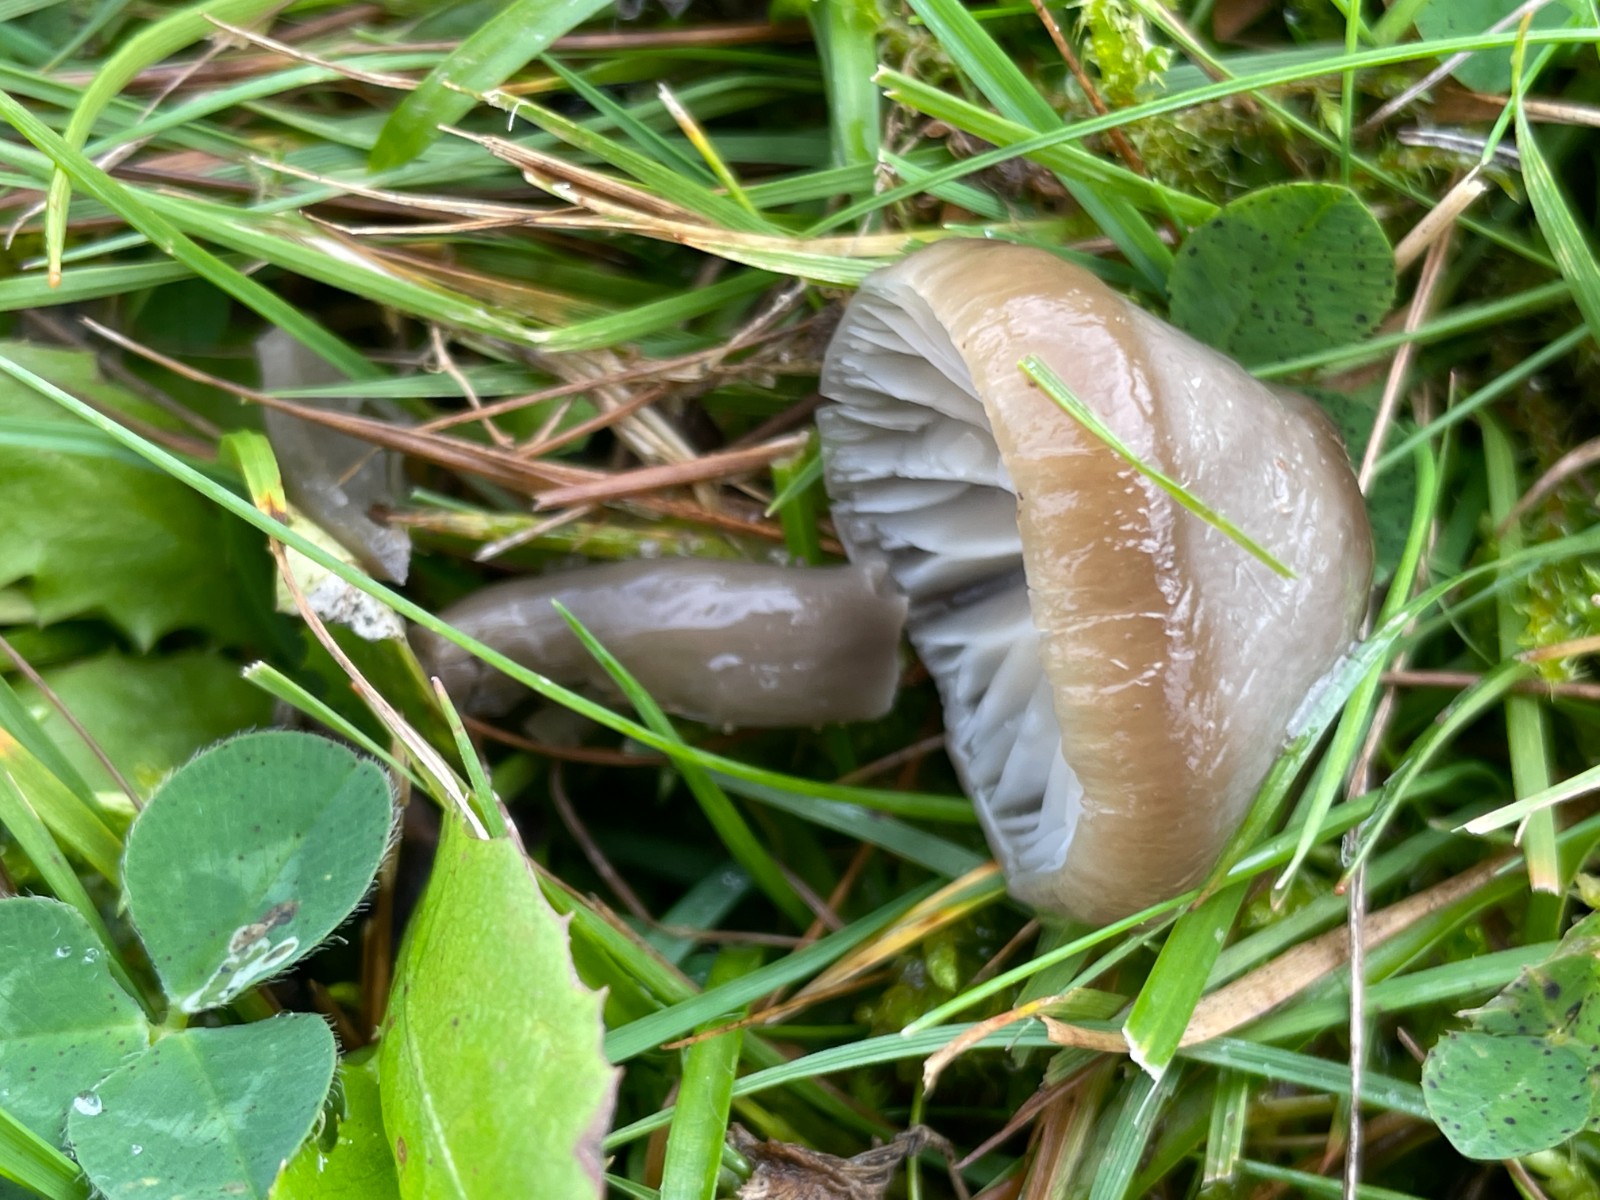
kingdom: Fungi
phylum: Basidiomycota
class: Agaricomycetes
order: Agaricales
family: Hygrophoraceae
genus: Gliophorus
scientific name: Gliophorus irrigatus
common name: slimet vokshat
